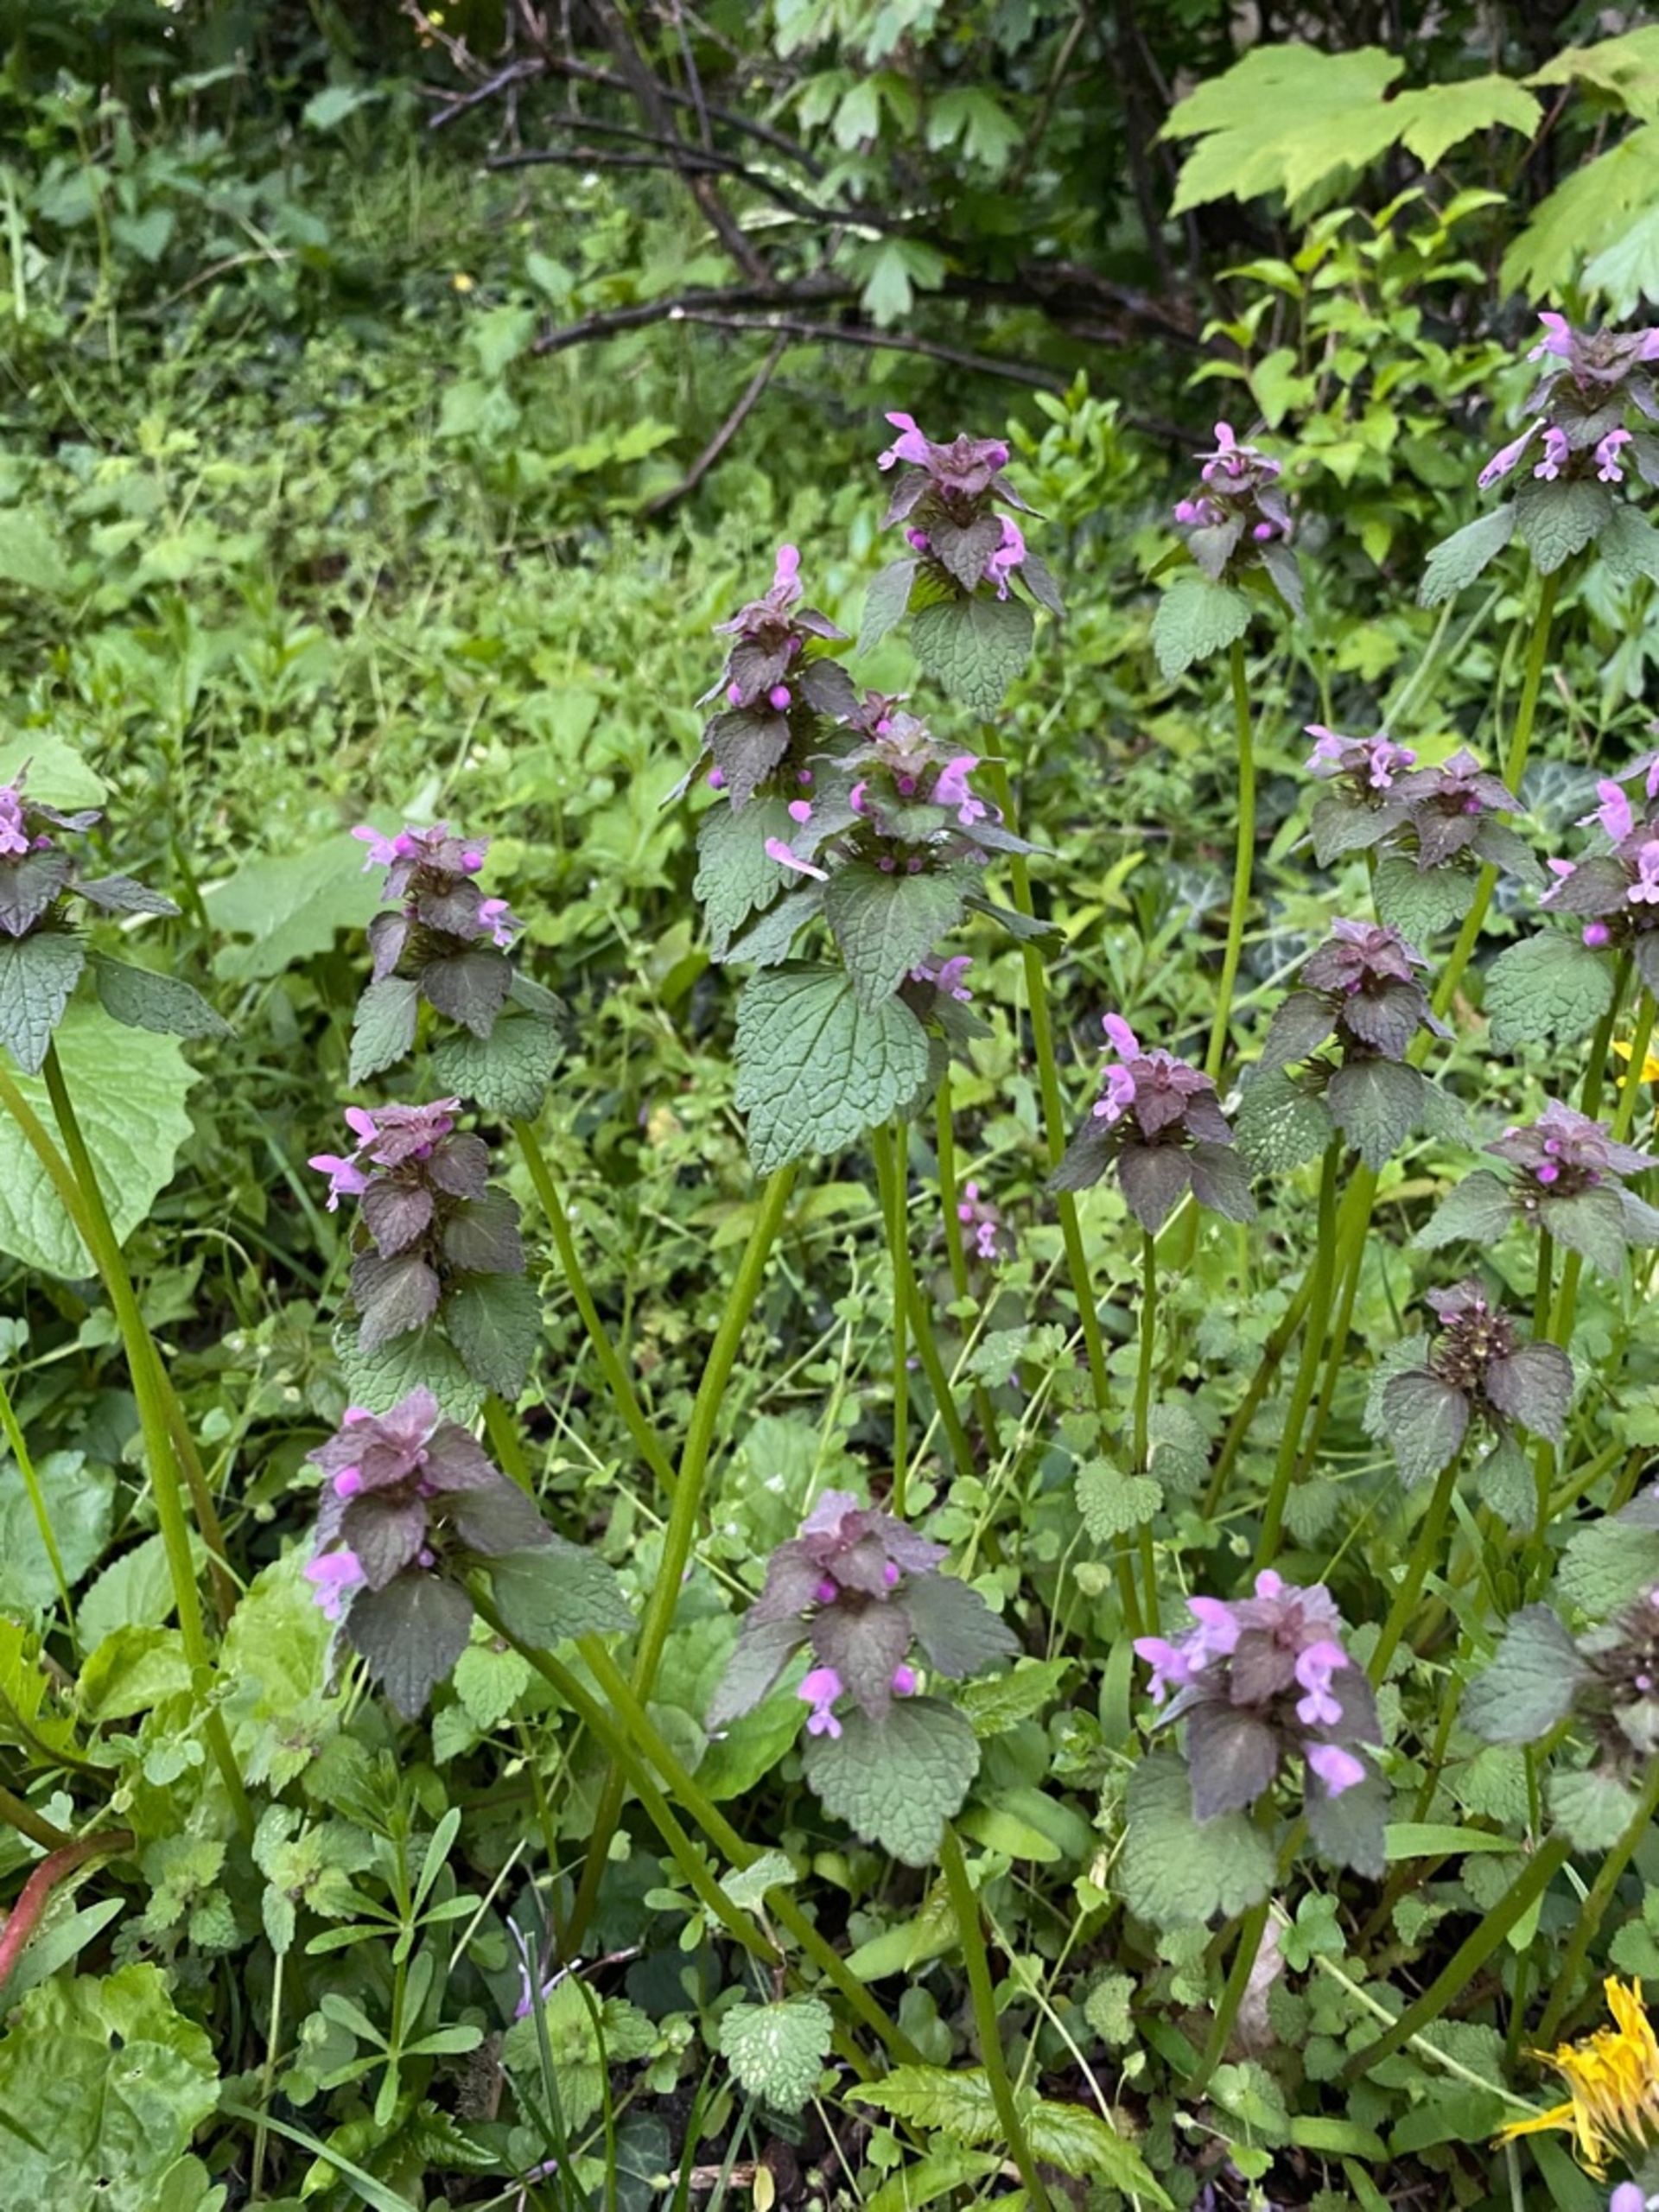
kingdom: Plantae
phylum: Tracheophyta
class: Magnoliopsida
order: Lamiales
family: Lamiaceae
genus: Lamium
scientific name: Lamium purpureum
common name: Rød tvetand
